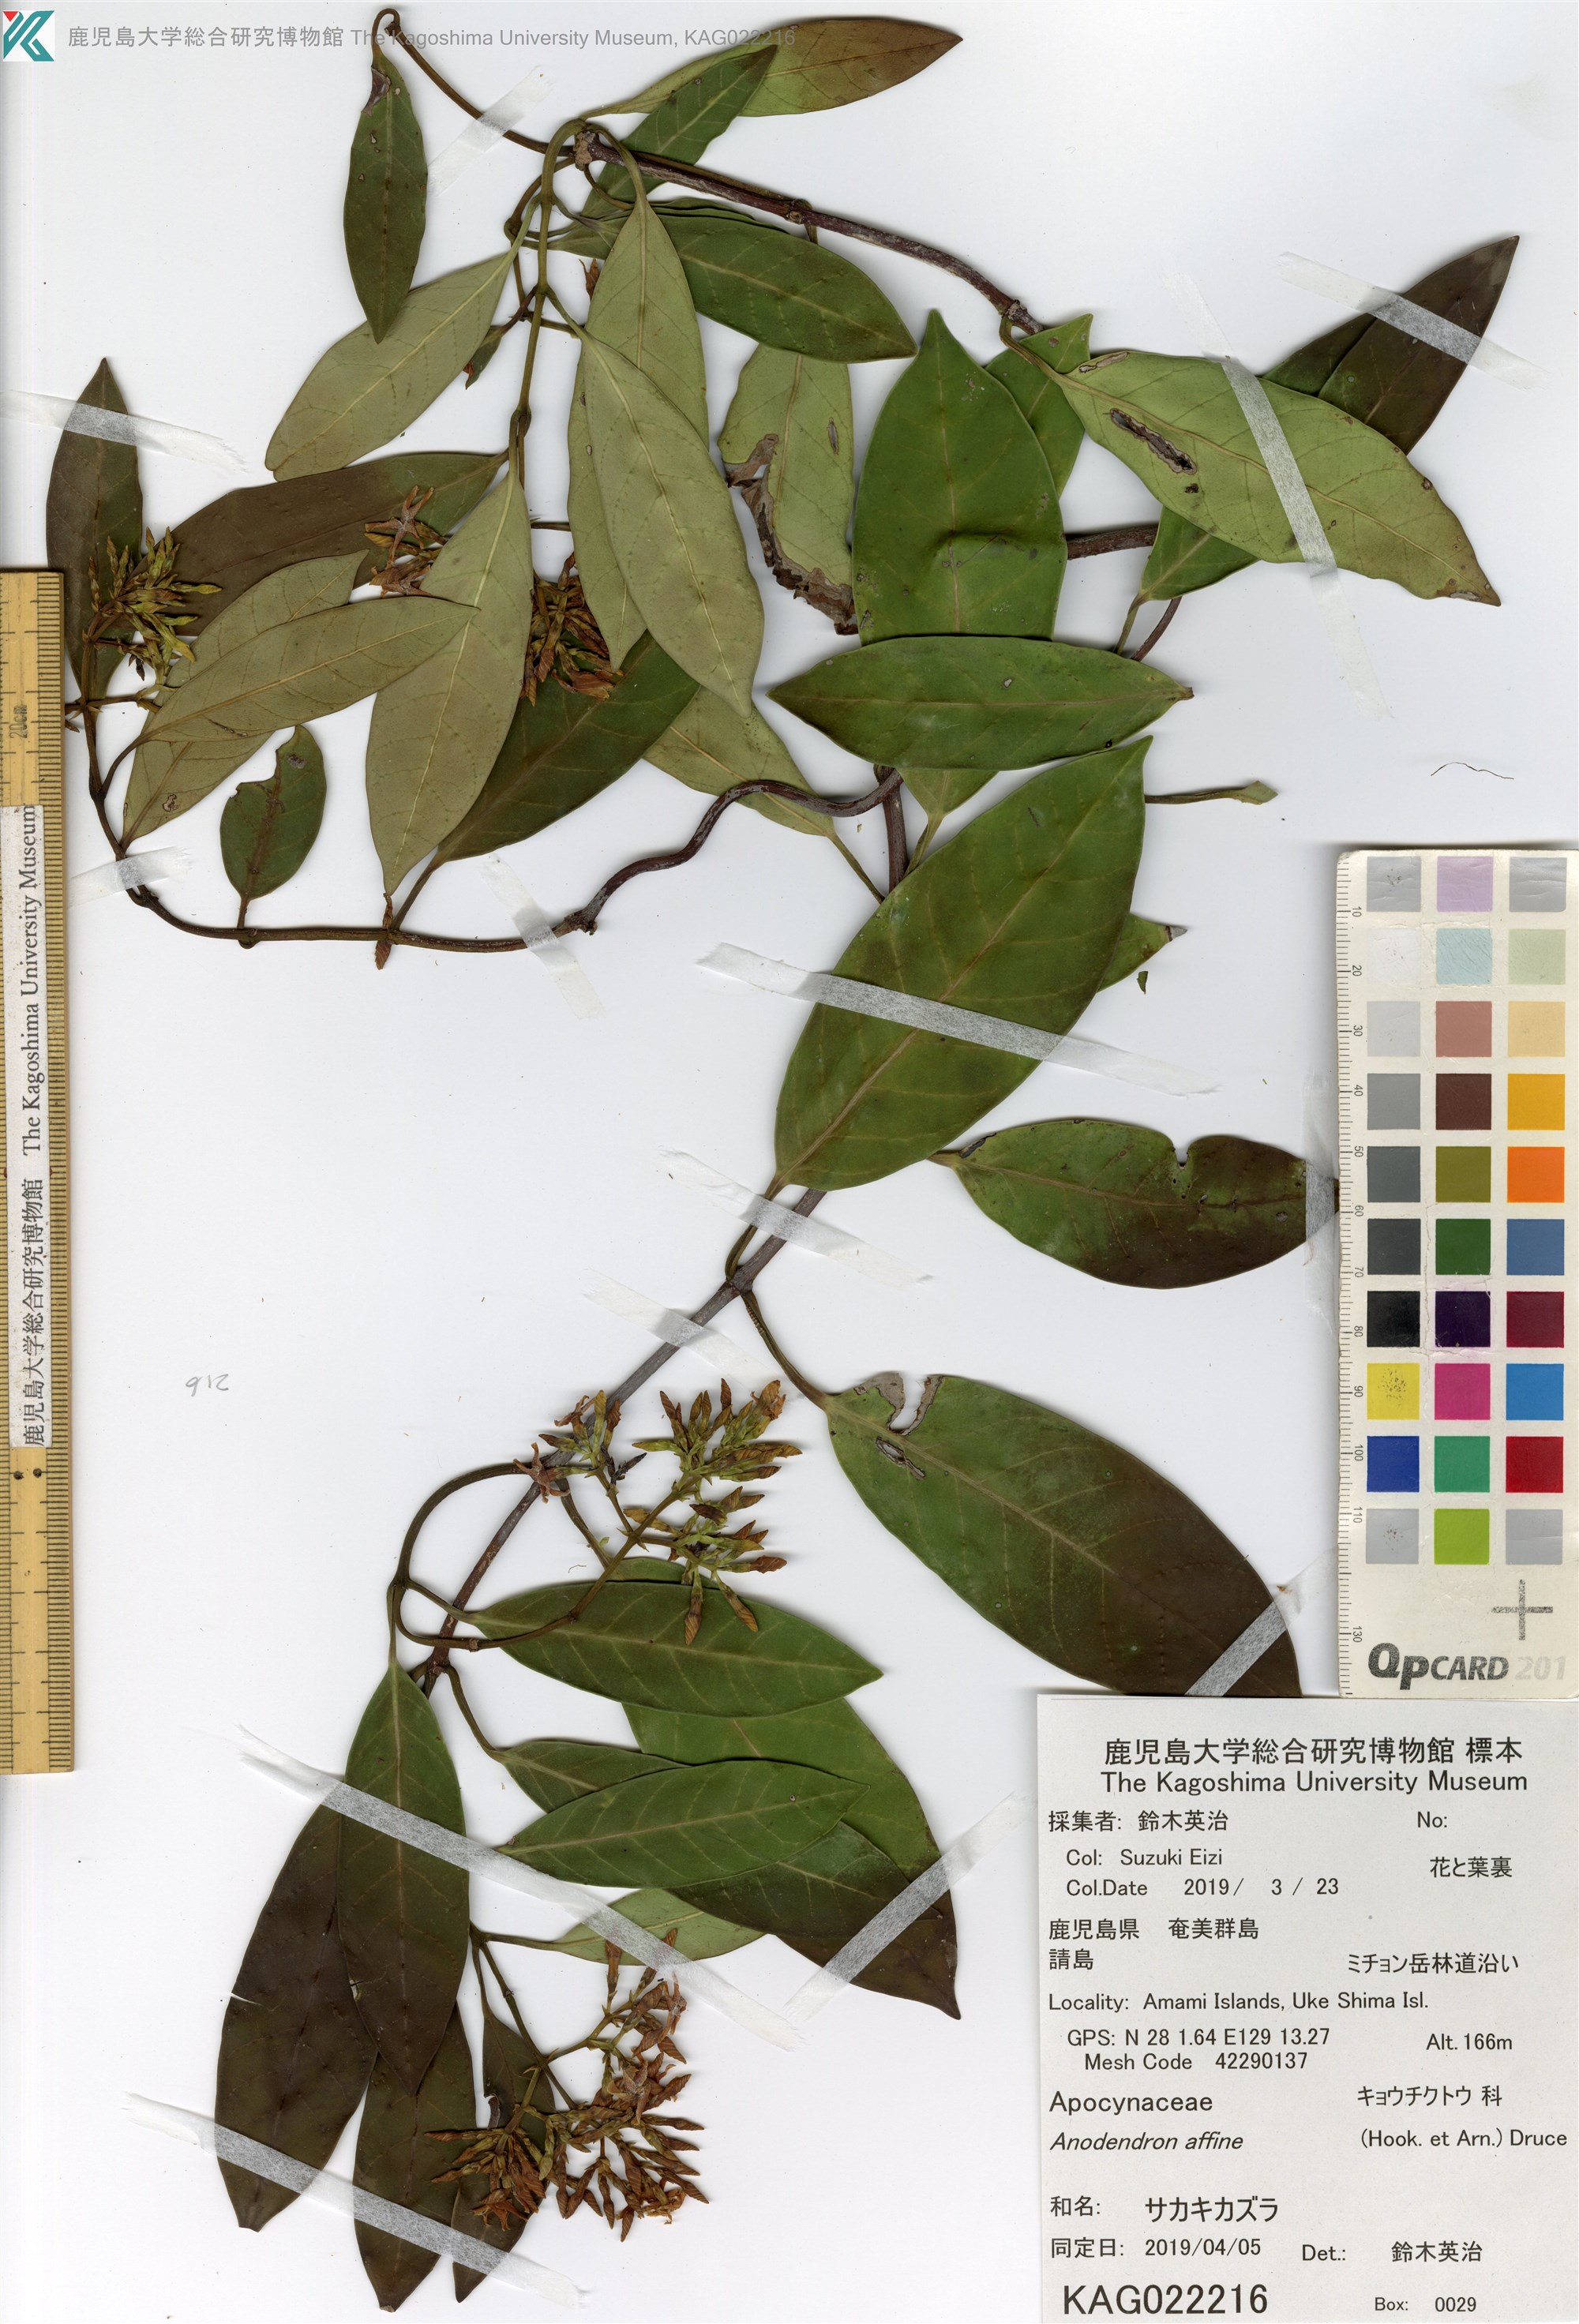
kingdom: Plantae
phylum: Tracheophyta
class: Magnoliopsida
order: Gentianales
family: Apocynaceae
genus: Anodendron
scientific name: Anodendron affine
